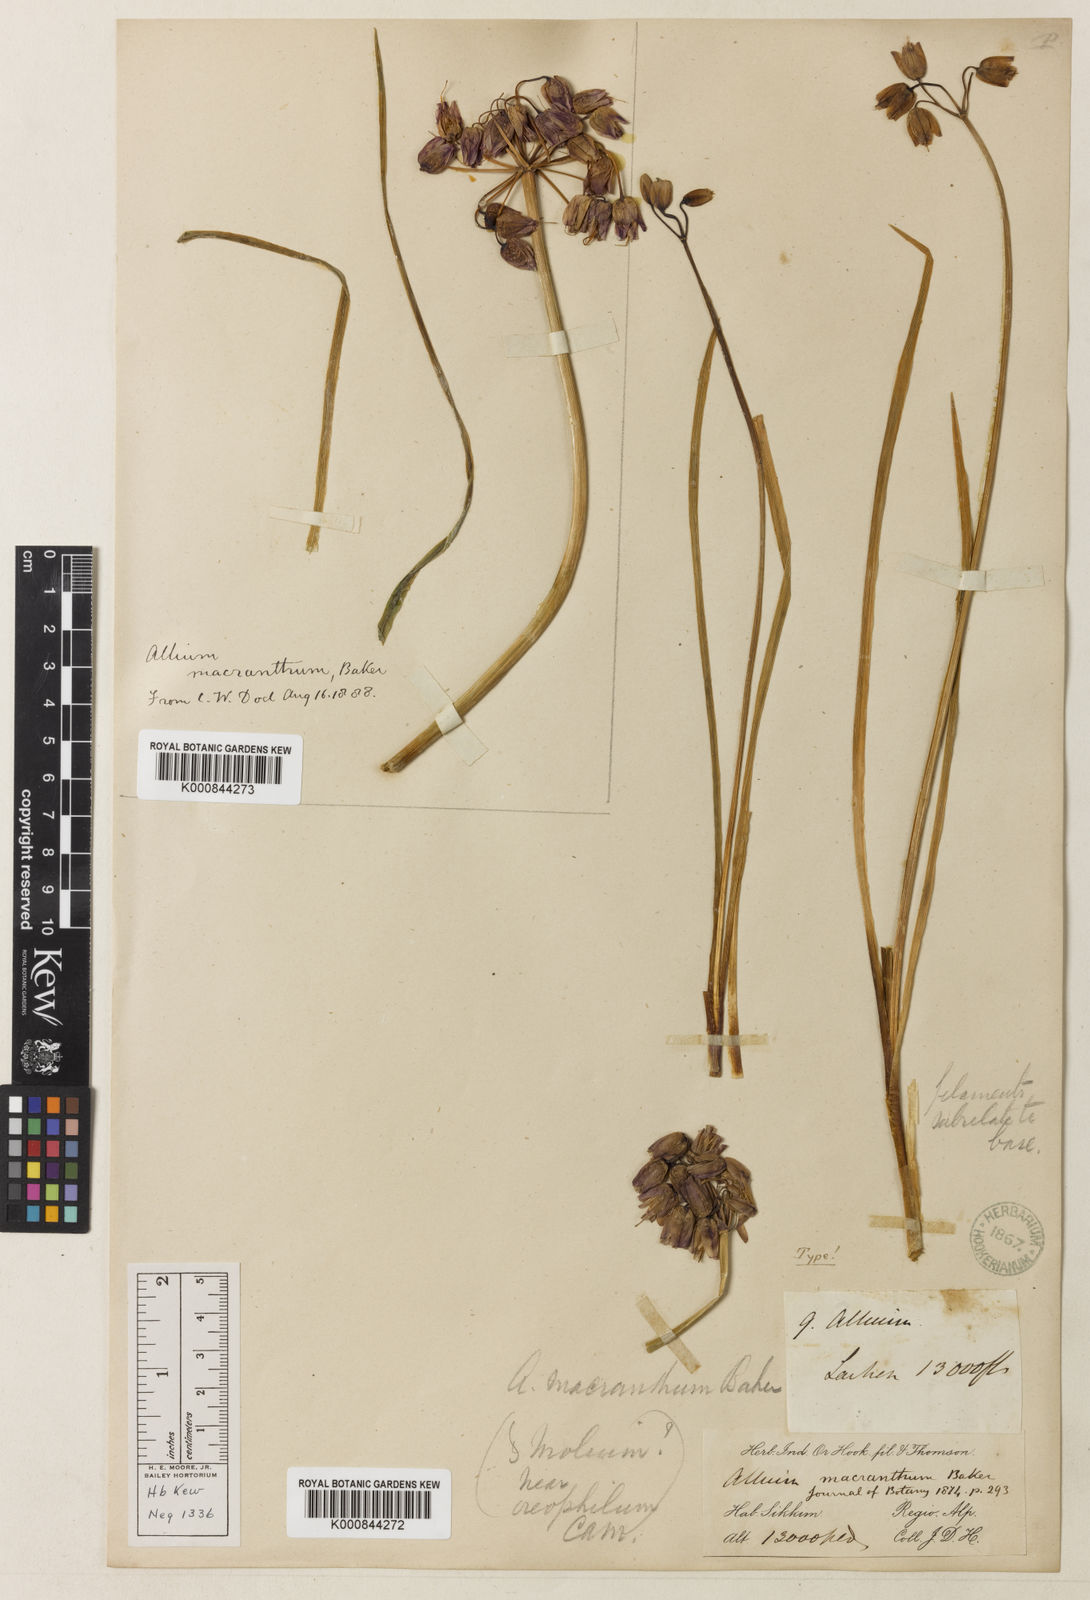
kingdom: Plantae
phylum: Tracheophyta
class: Liliopsida
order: Asparagales
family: Amaryllidaceae
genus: Allium
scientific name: Allium macranthum
